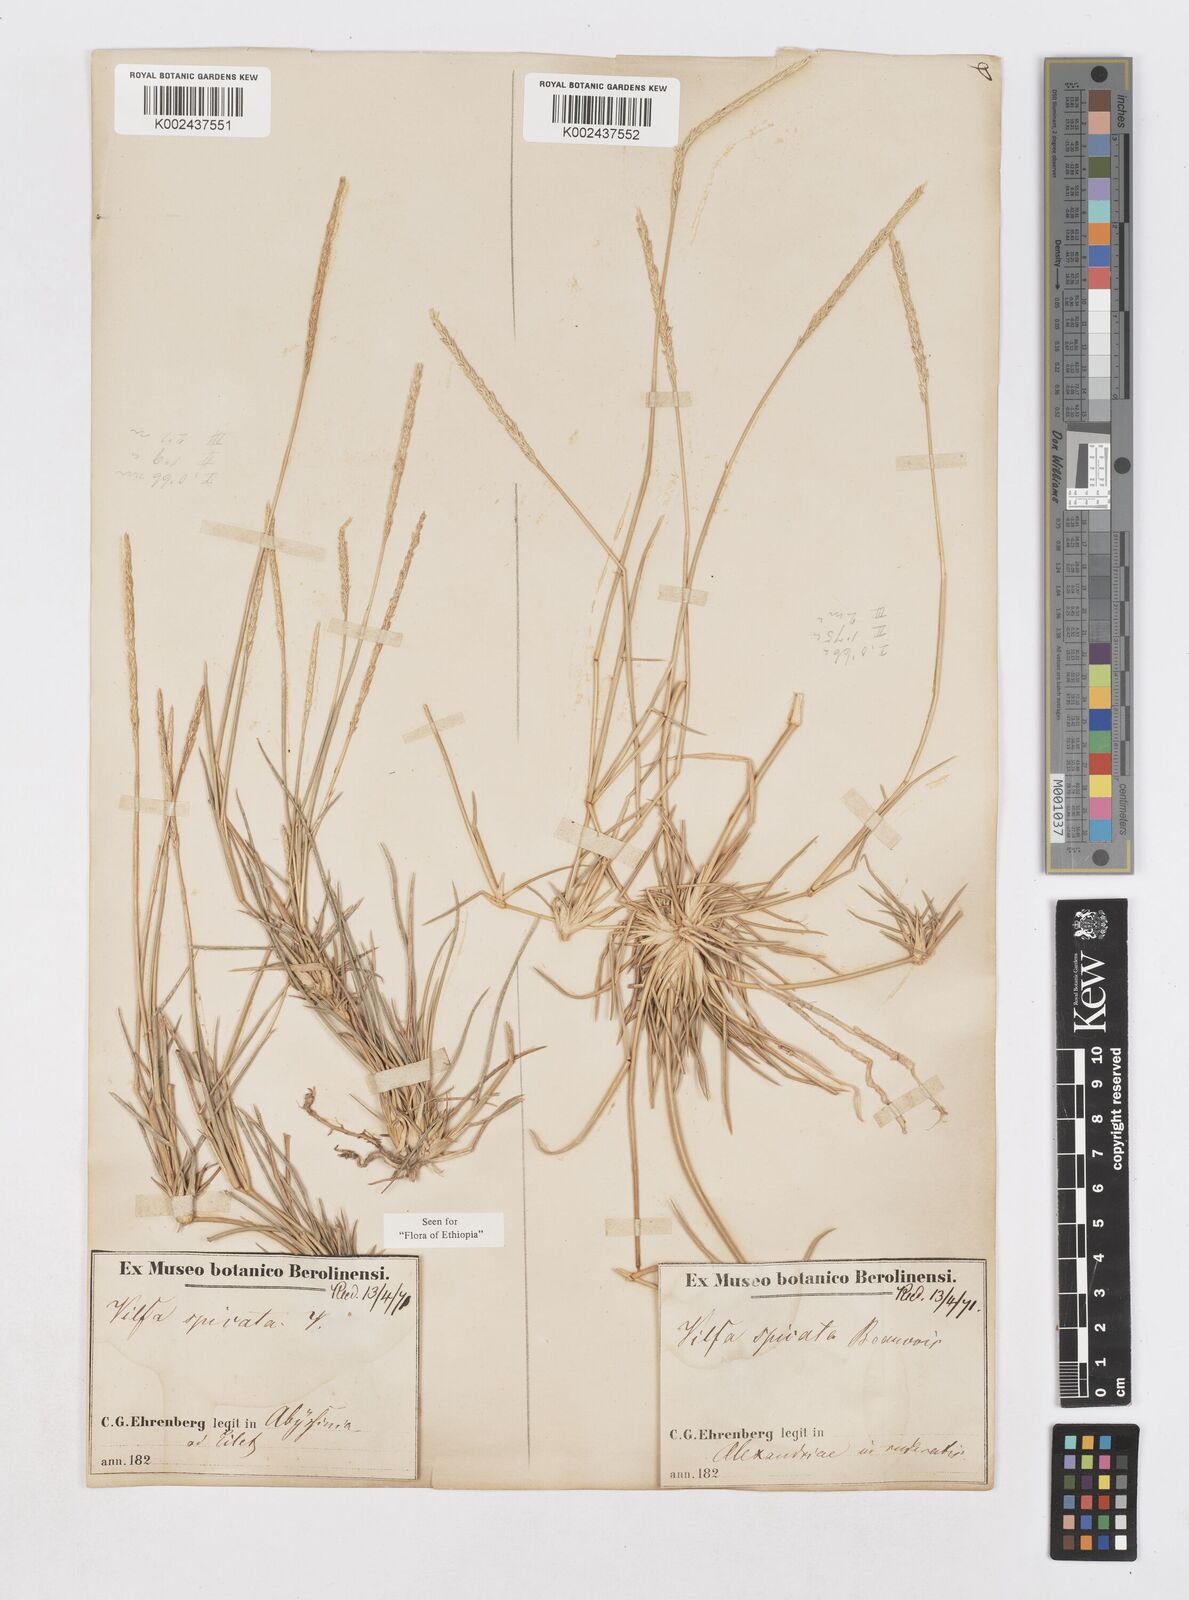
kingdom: Plantae
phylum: Tracheophyta
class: Liliopsida
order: Poales
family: Poaceae
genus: Sporobolus
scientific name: Sporobolus spicatus
